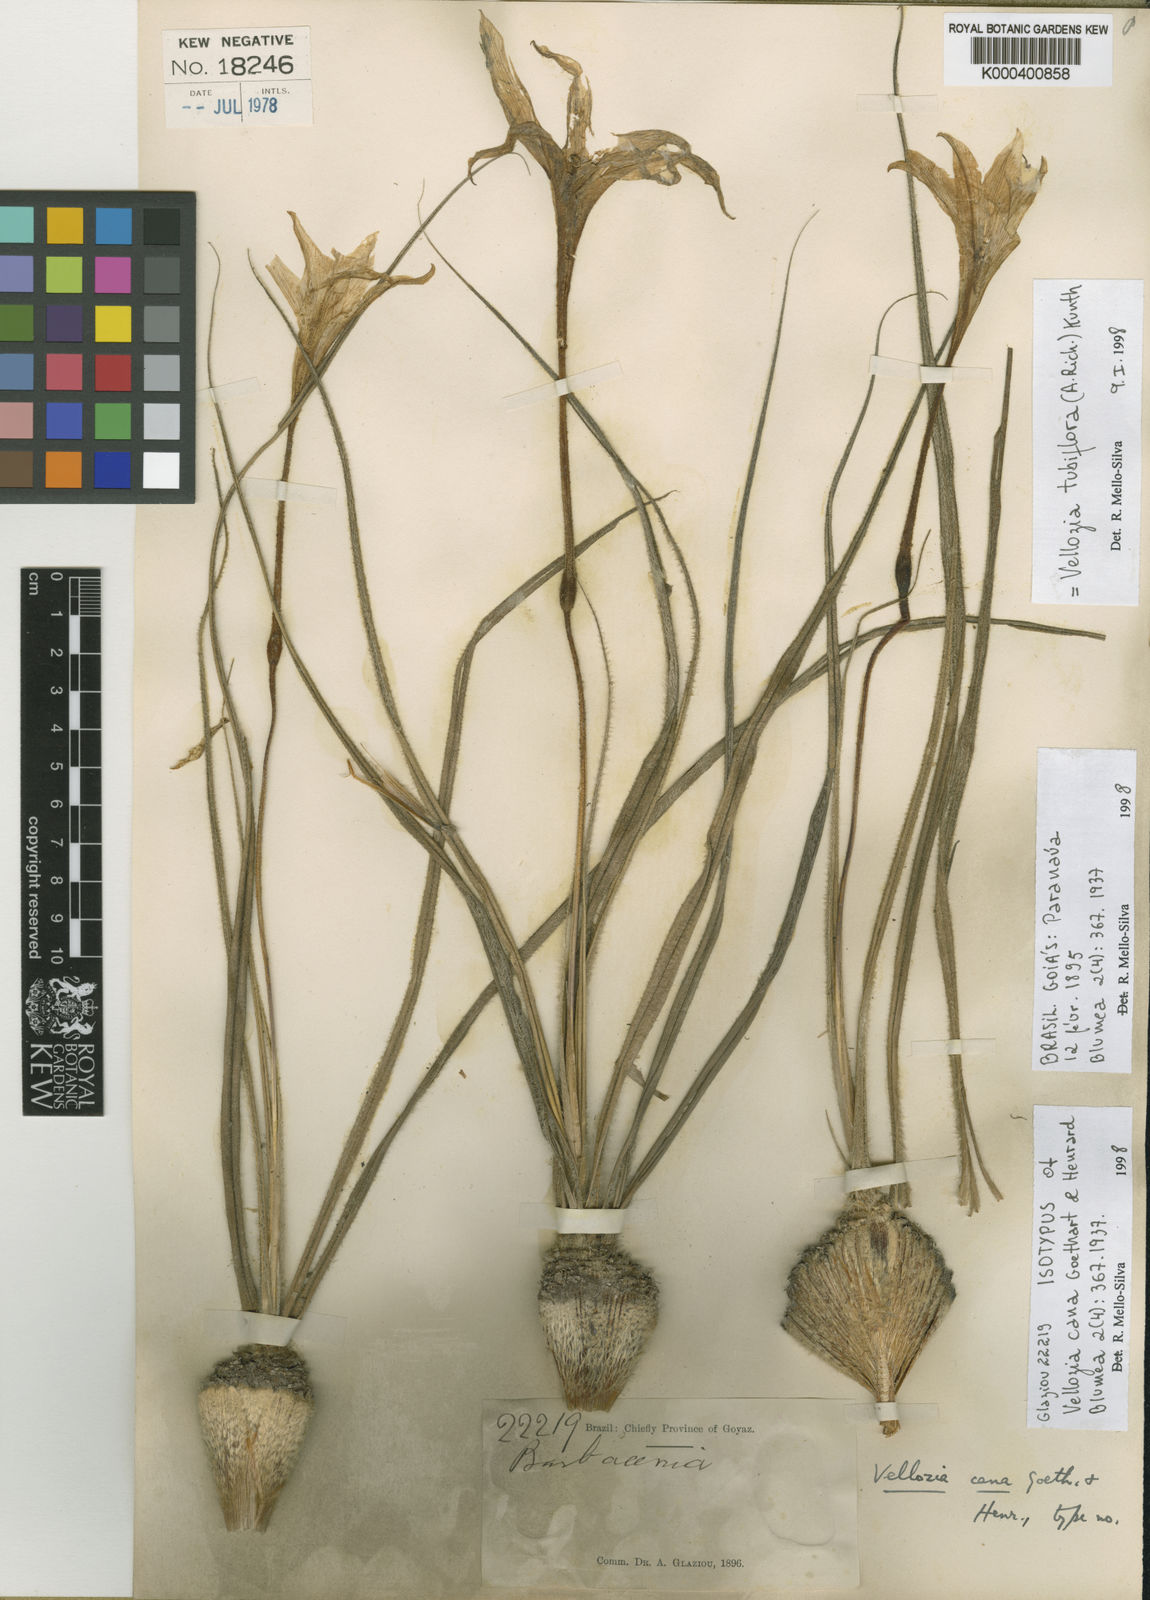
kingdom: Plantae
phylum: Tracheophyta
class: Liliopsida
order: Pandanales
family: Velloziaceae
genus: Vellozia
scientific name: Vellozia tubiflora
